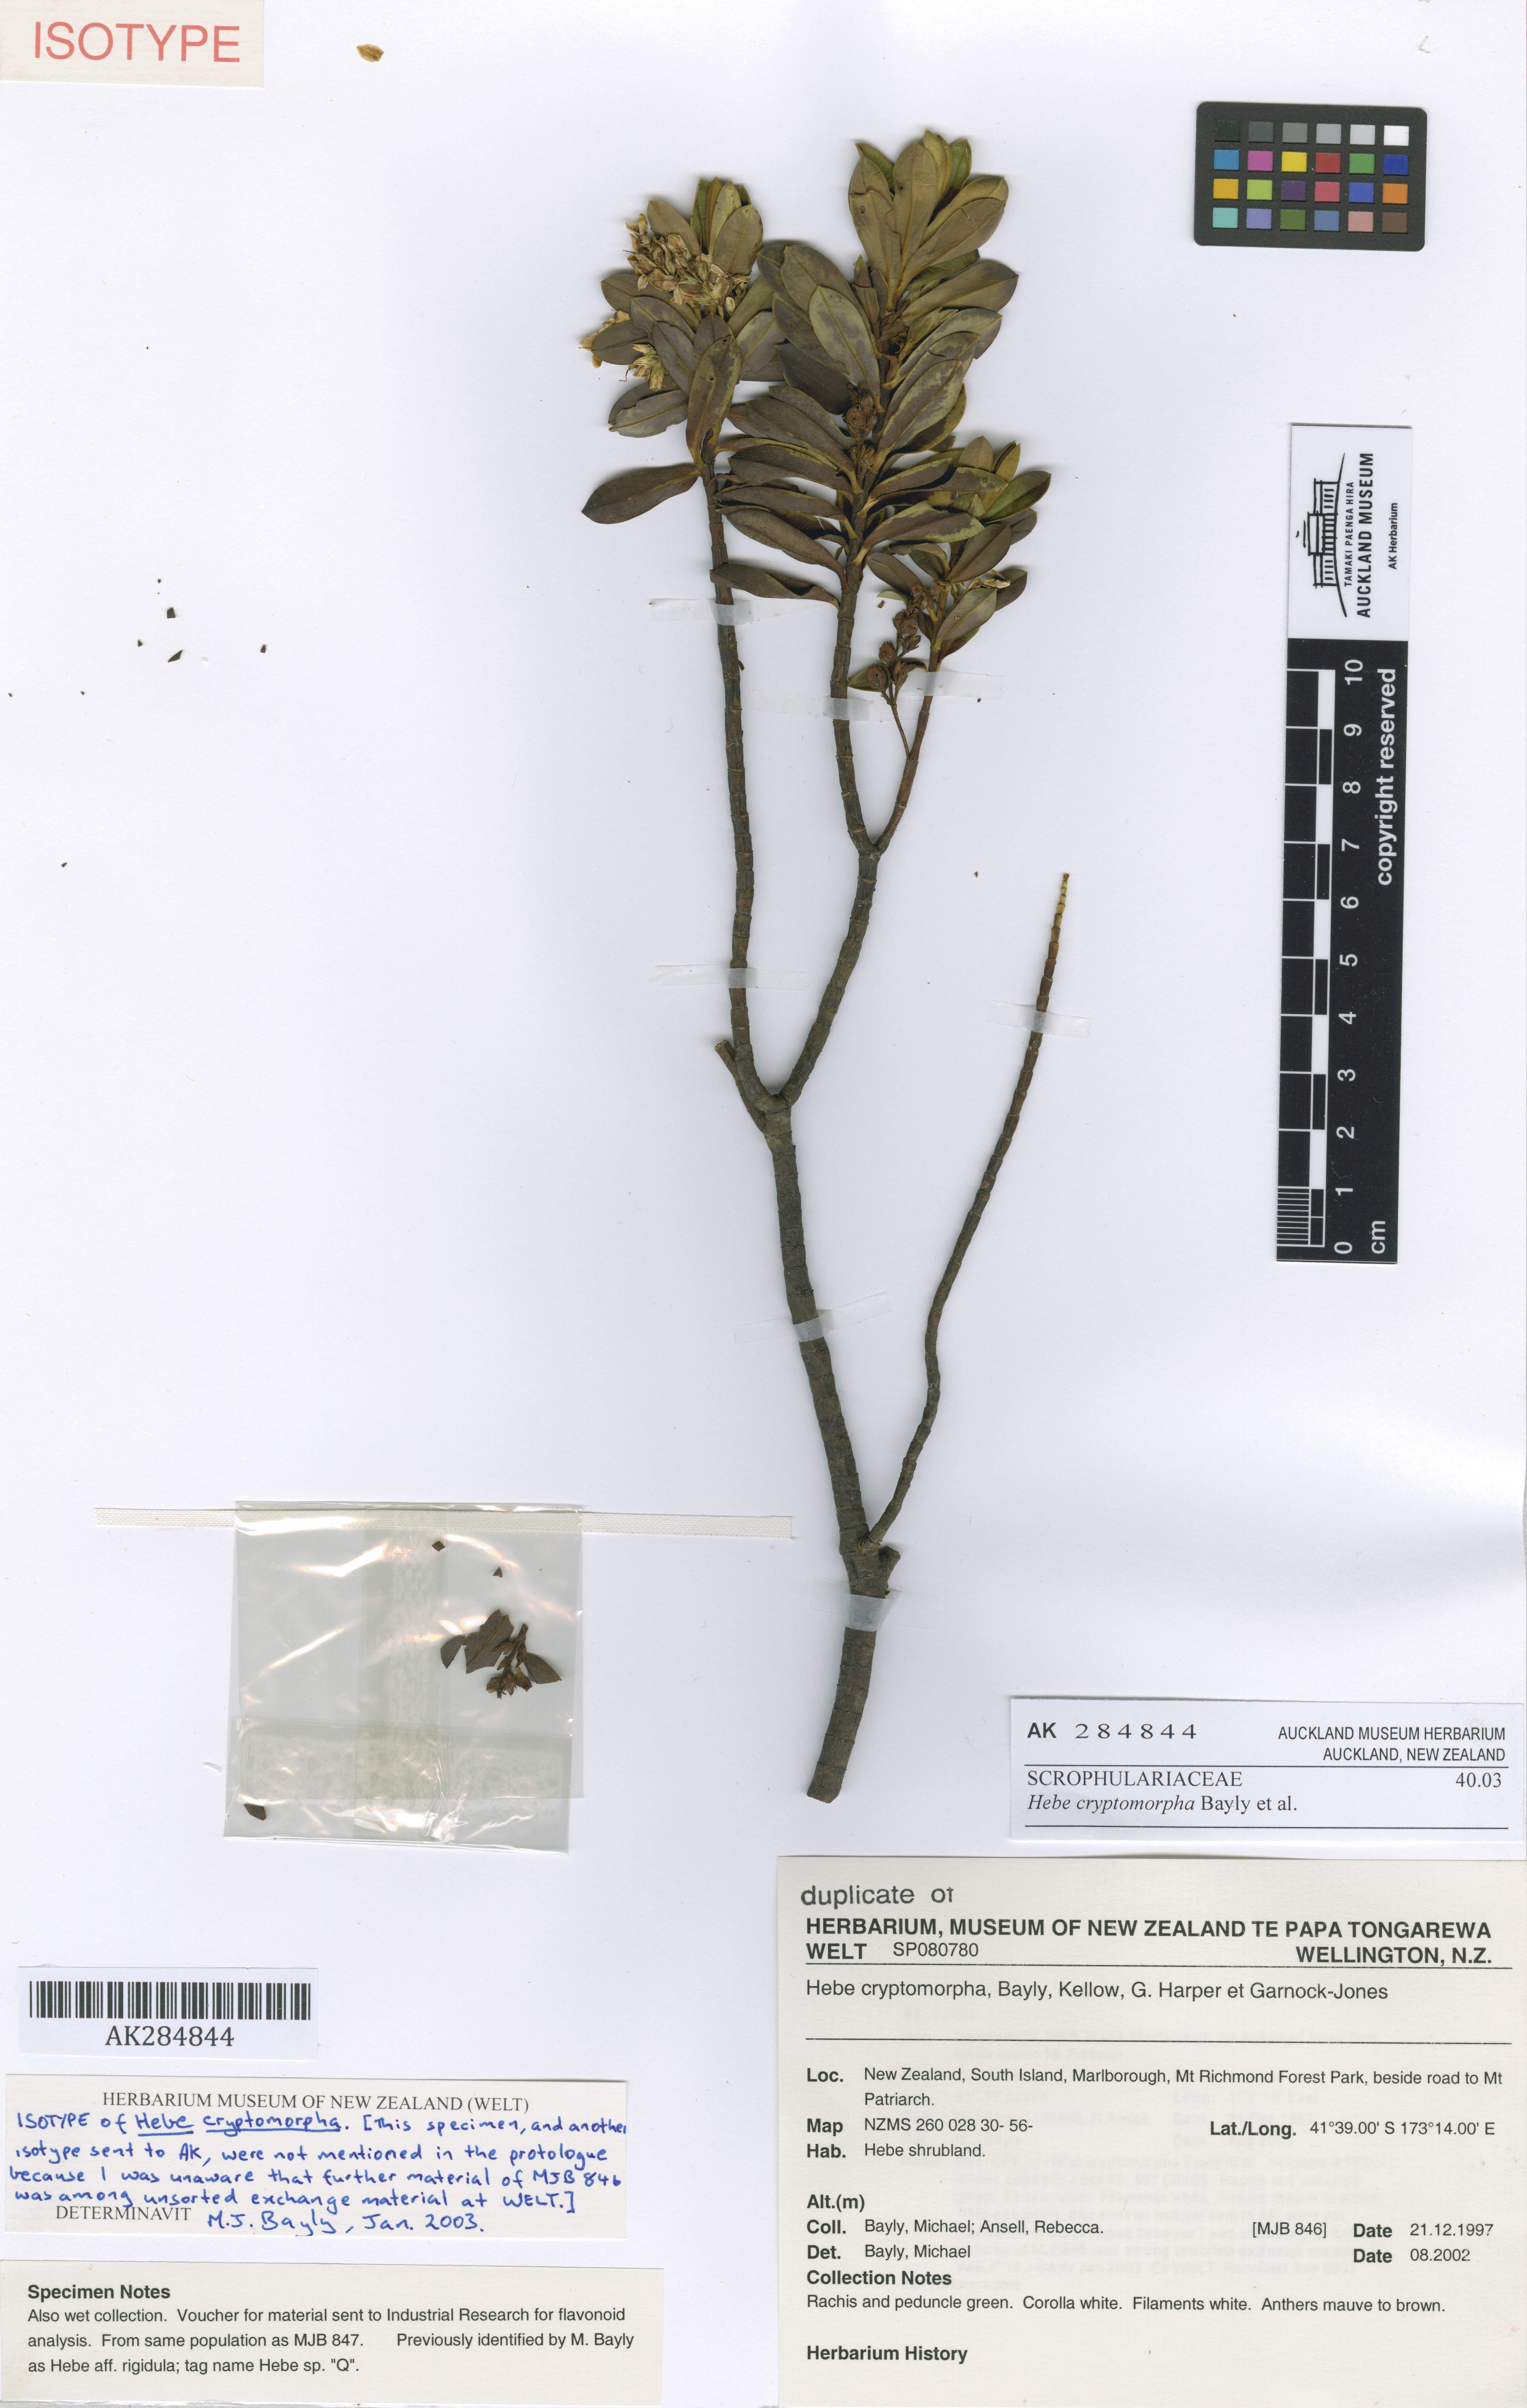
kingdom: Plantae
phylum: Tracheophyta
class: Magnoliopsida
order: Lamiales
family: Plantaginaceae
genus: Veronica
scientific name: Veronica cryptomorpha
